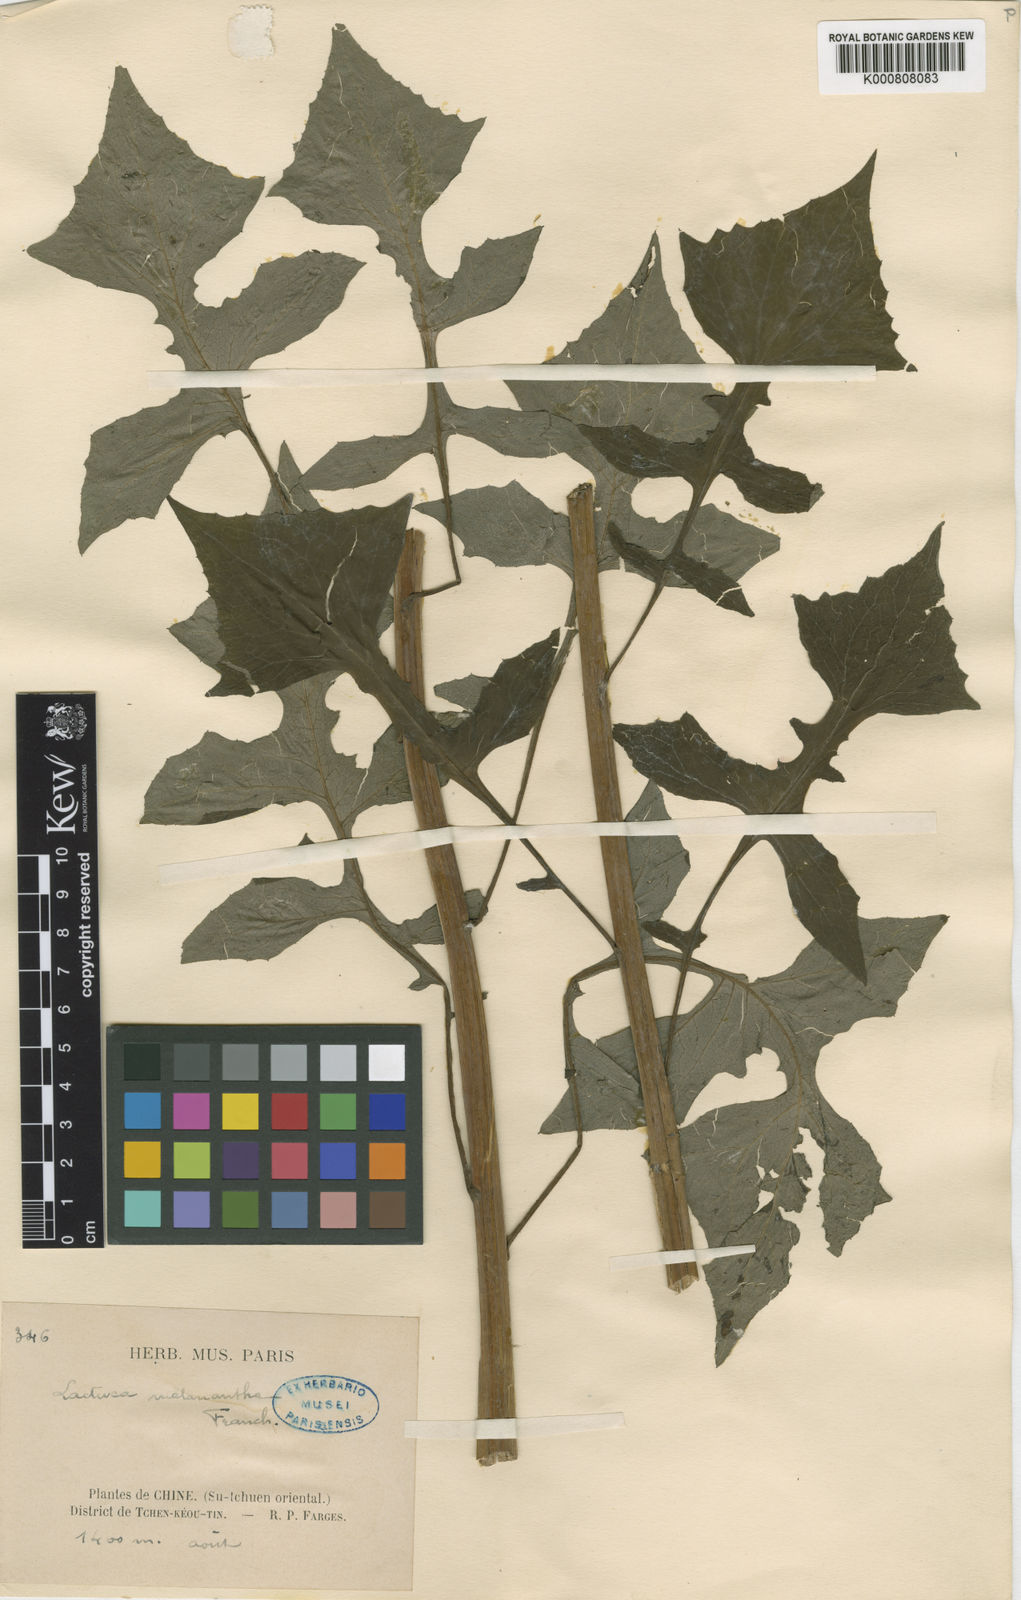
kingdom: Plantae
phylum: Tracheophyta
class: Magnoliopsida
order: Asterales
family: Asteraceae
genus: Paraprenanthes
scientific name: Paraprenanthes melanantha
